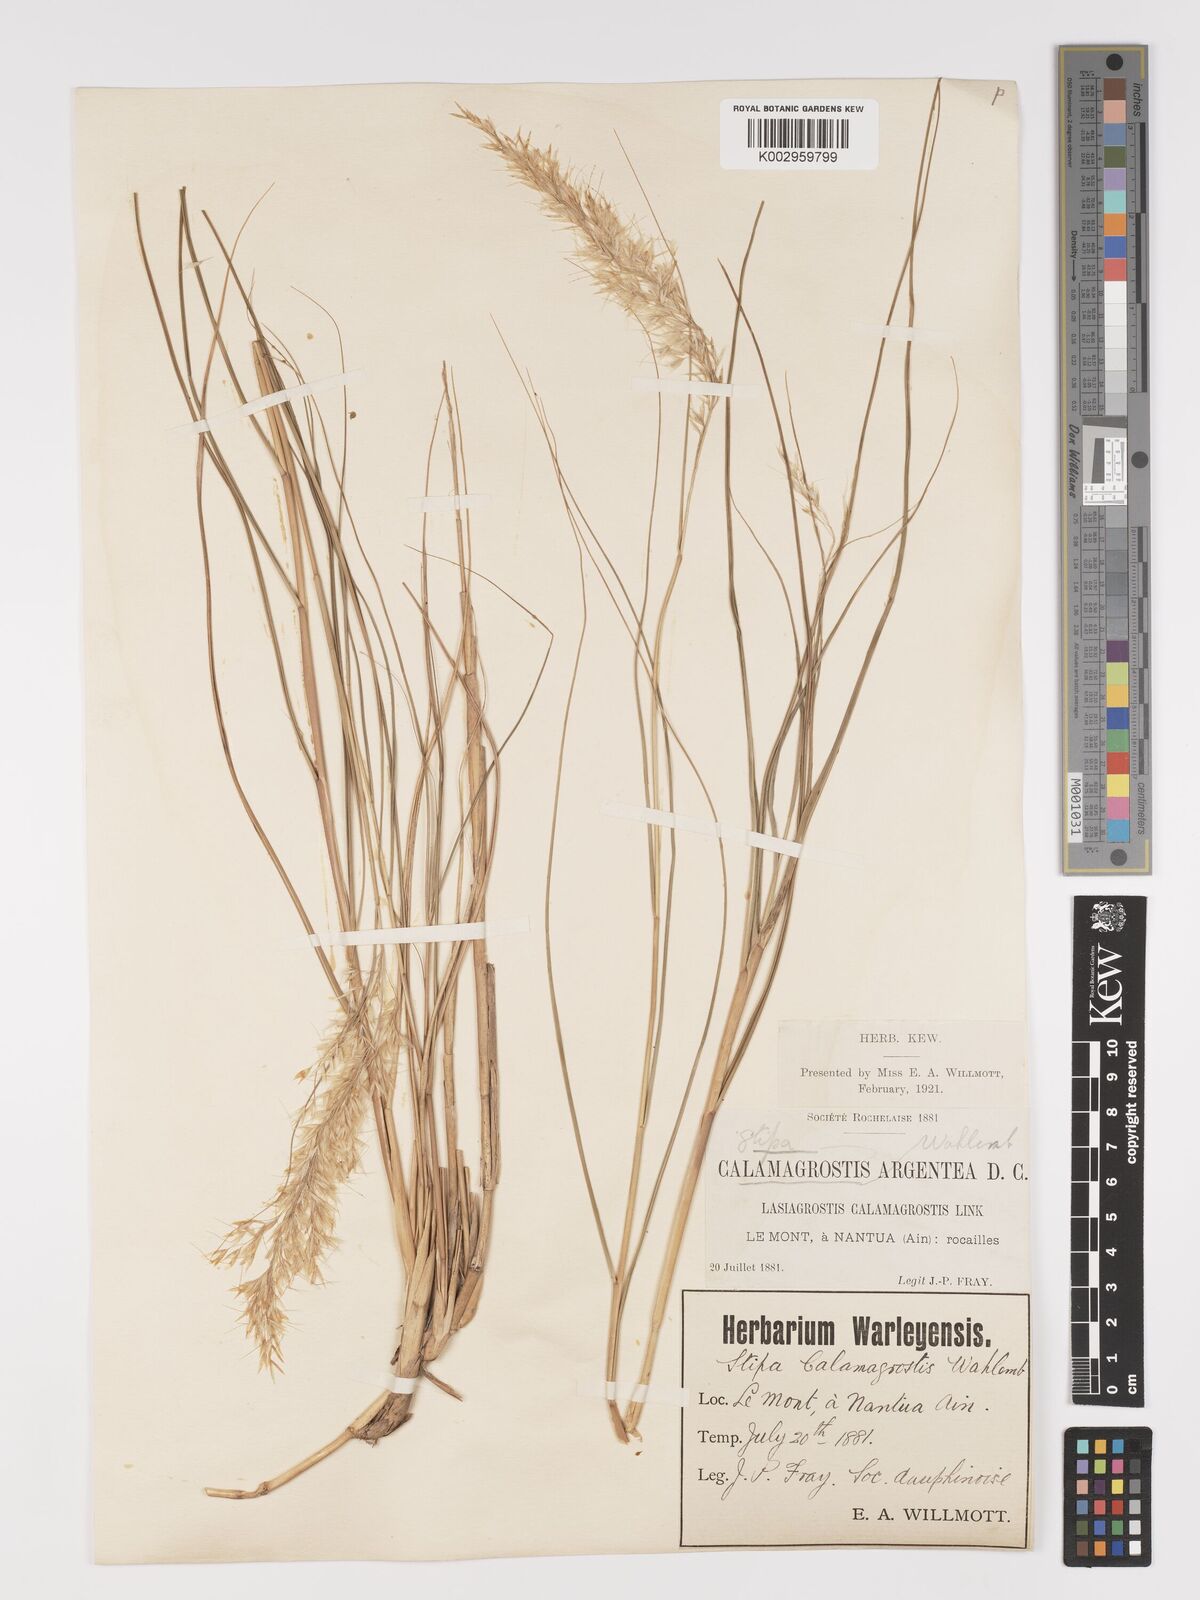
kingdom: Plantae
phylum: Tracheophyta
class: Liliopsida
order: Poales
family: Poaceae
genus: Achnatherum
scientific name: Achnatherum calamagrostis
